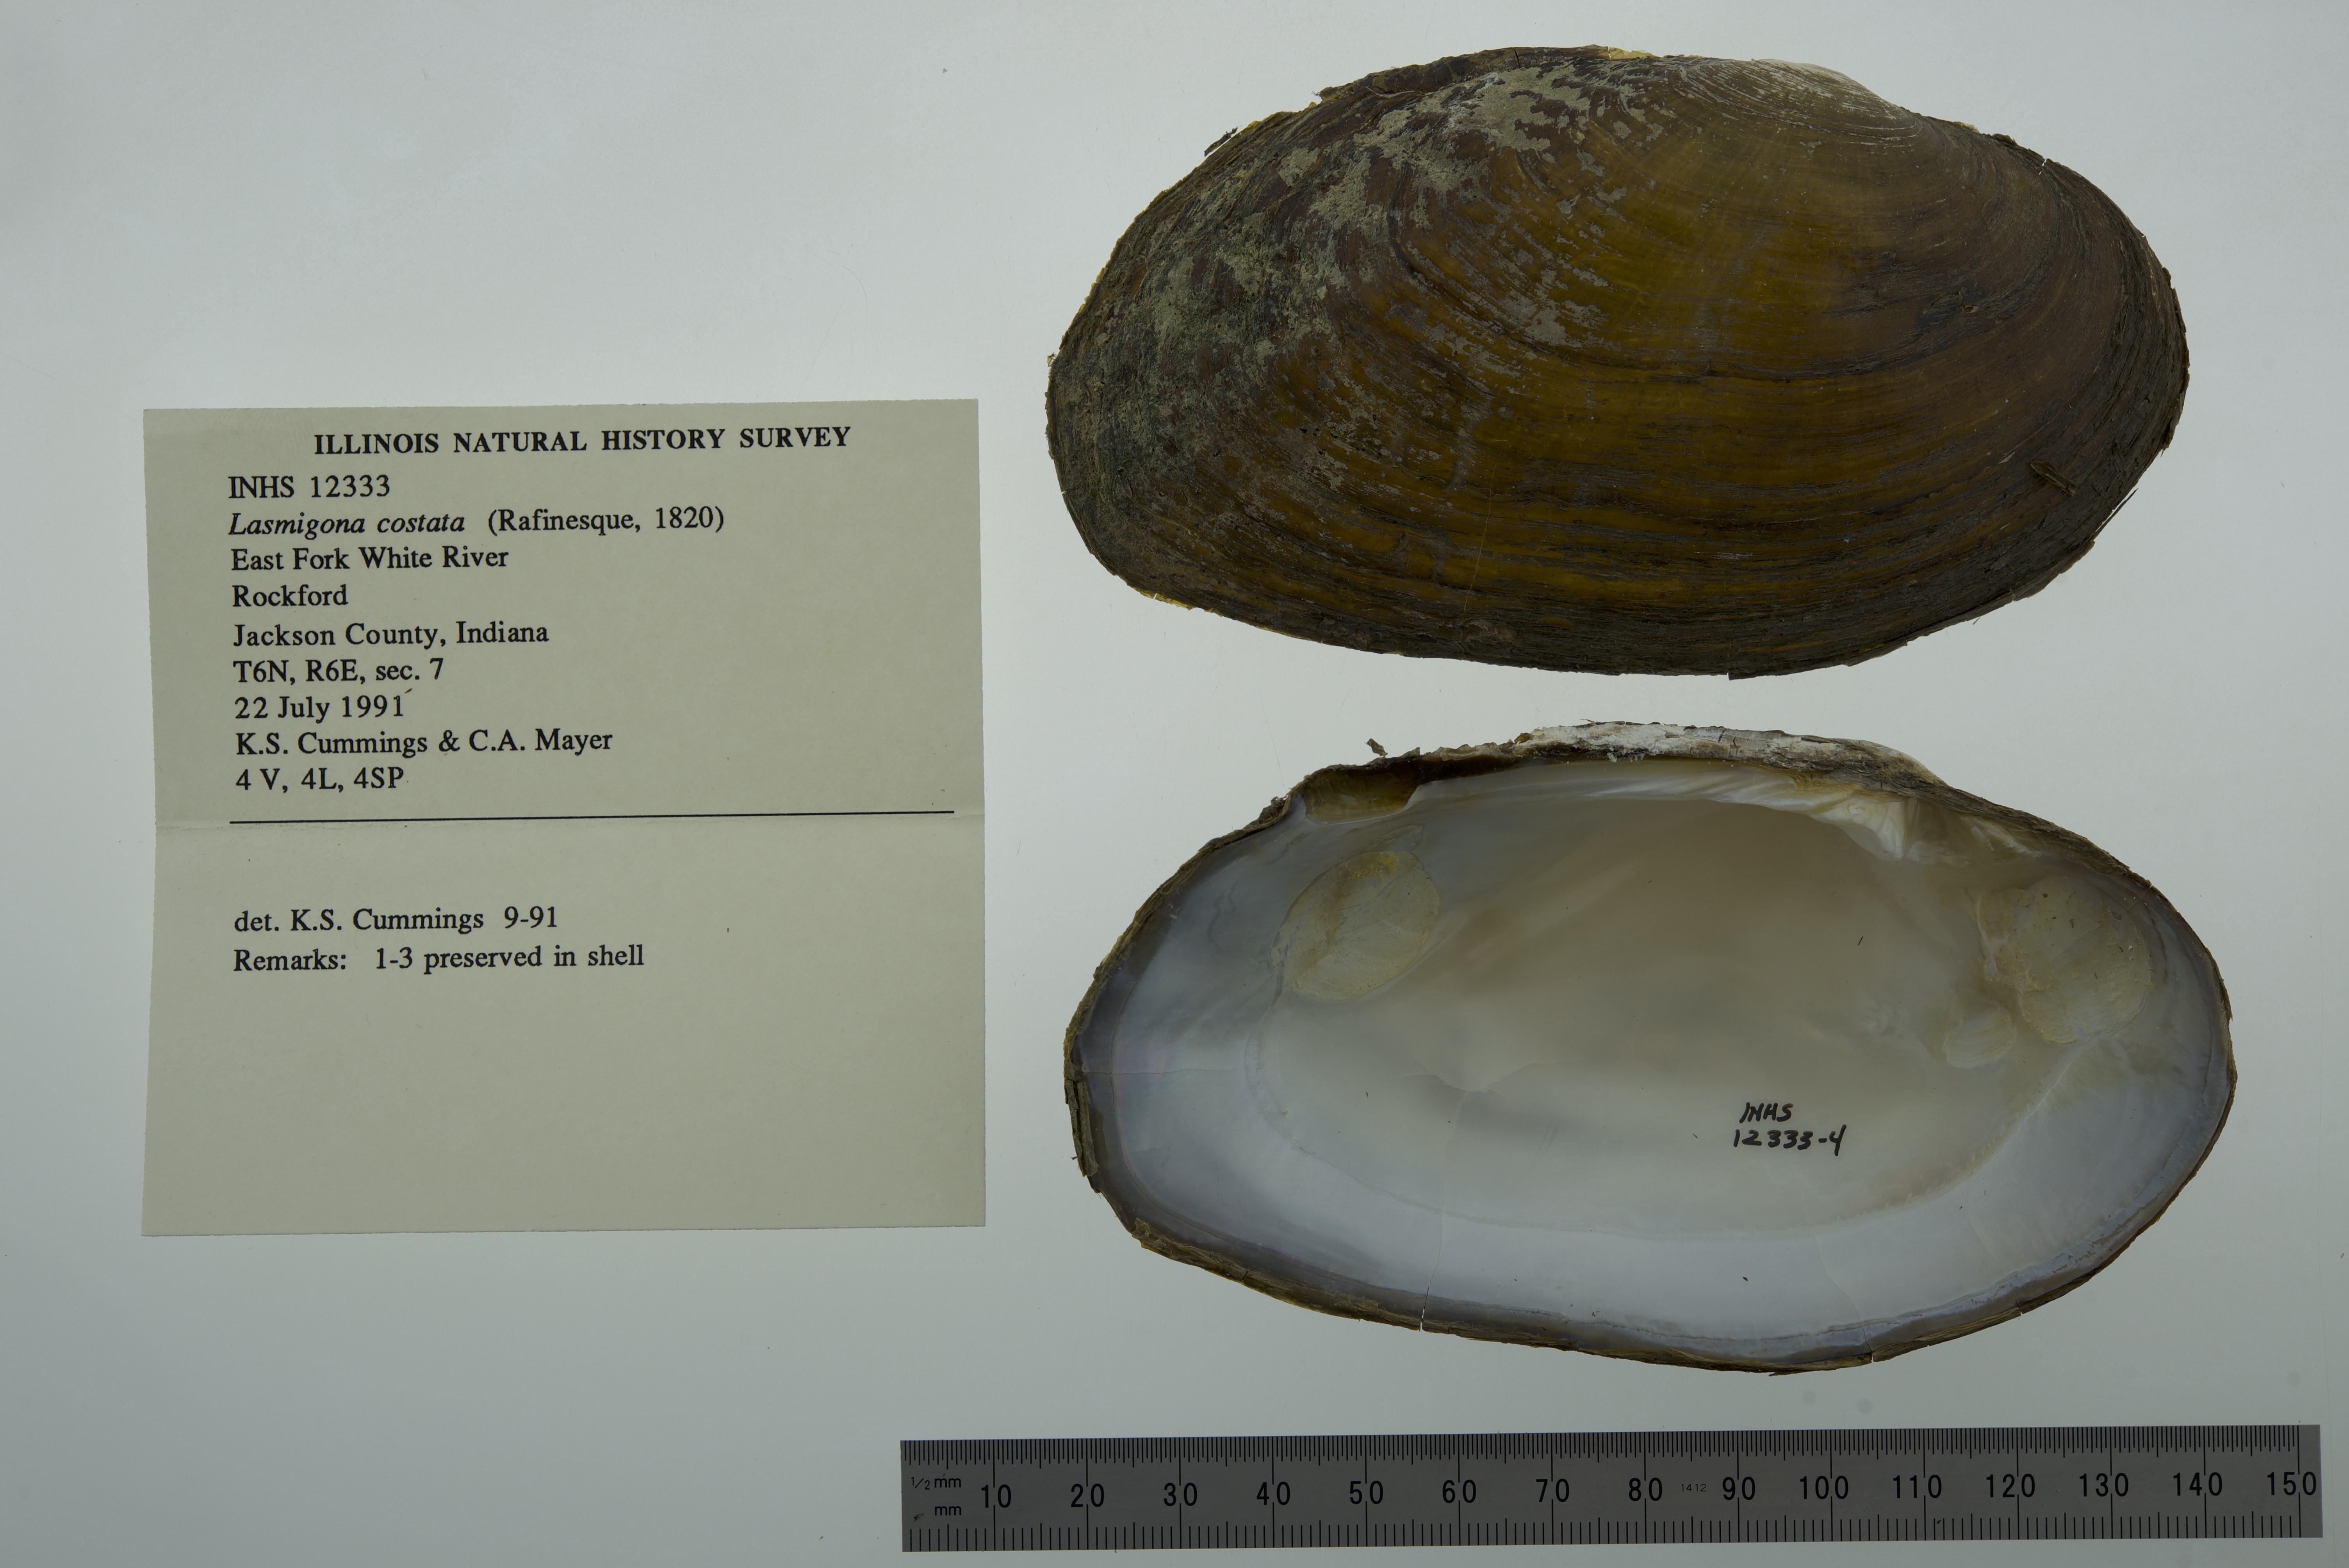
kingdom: Animalia
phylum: Mollusca
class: Bivalvia
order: Unionida
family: Unionidae
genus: Lasmigona
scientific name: Lasmigona costata
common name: Flutedshell
